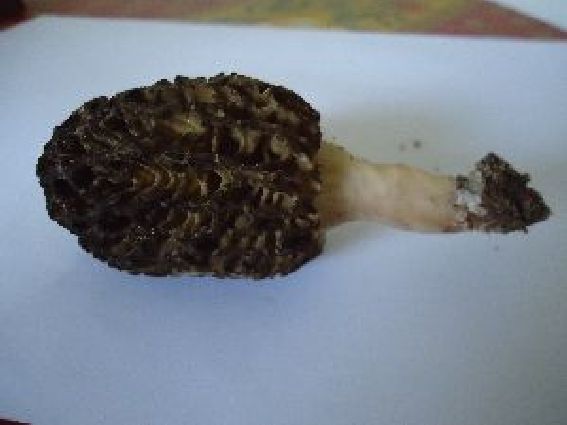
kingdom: Fungi
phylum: Ascomycota
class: Pezizomycetes
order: Pezizales
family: Morchellaceae
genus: Morchella
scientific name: Morchella esculenta
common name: Morel
